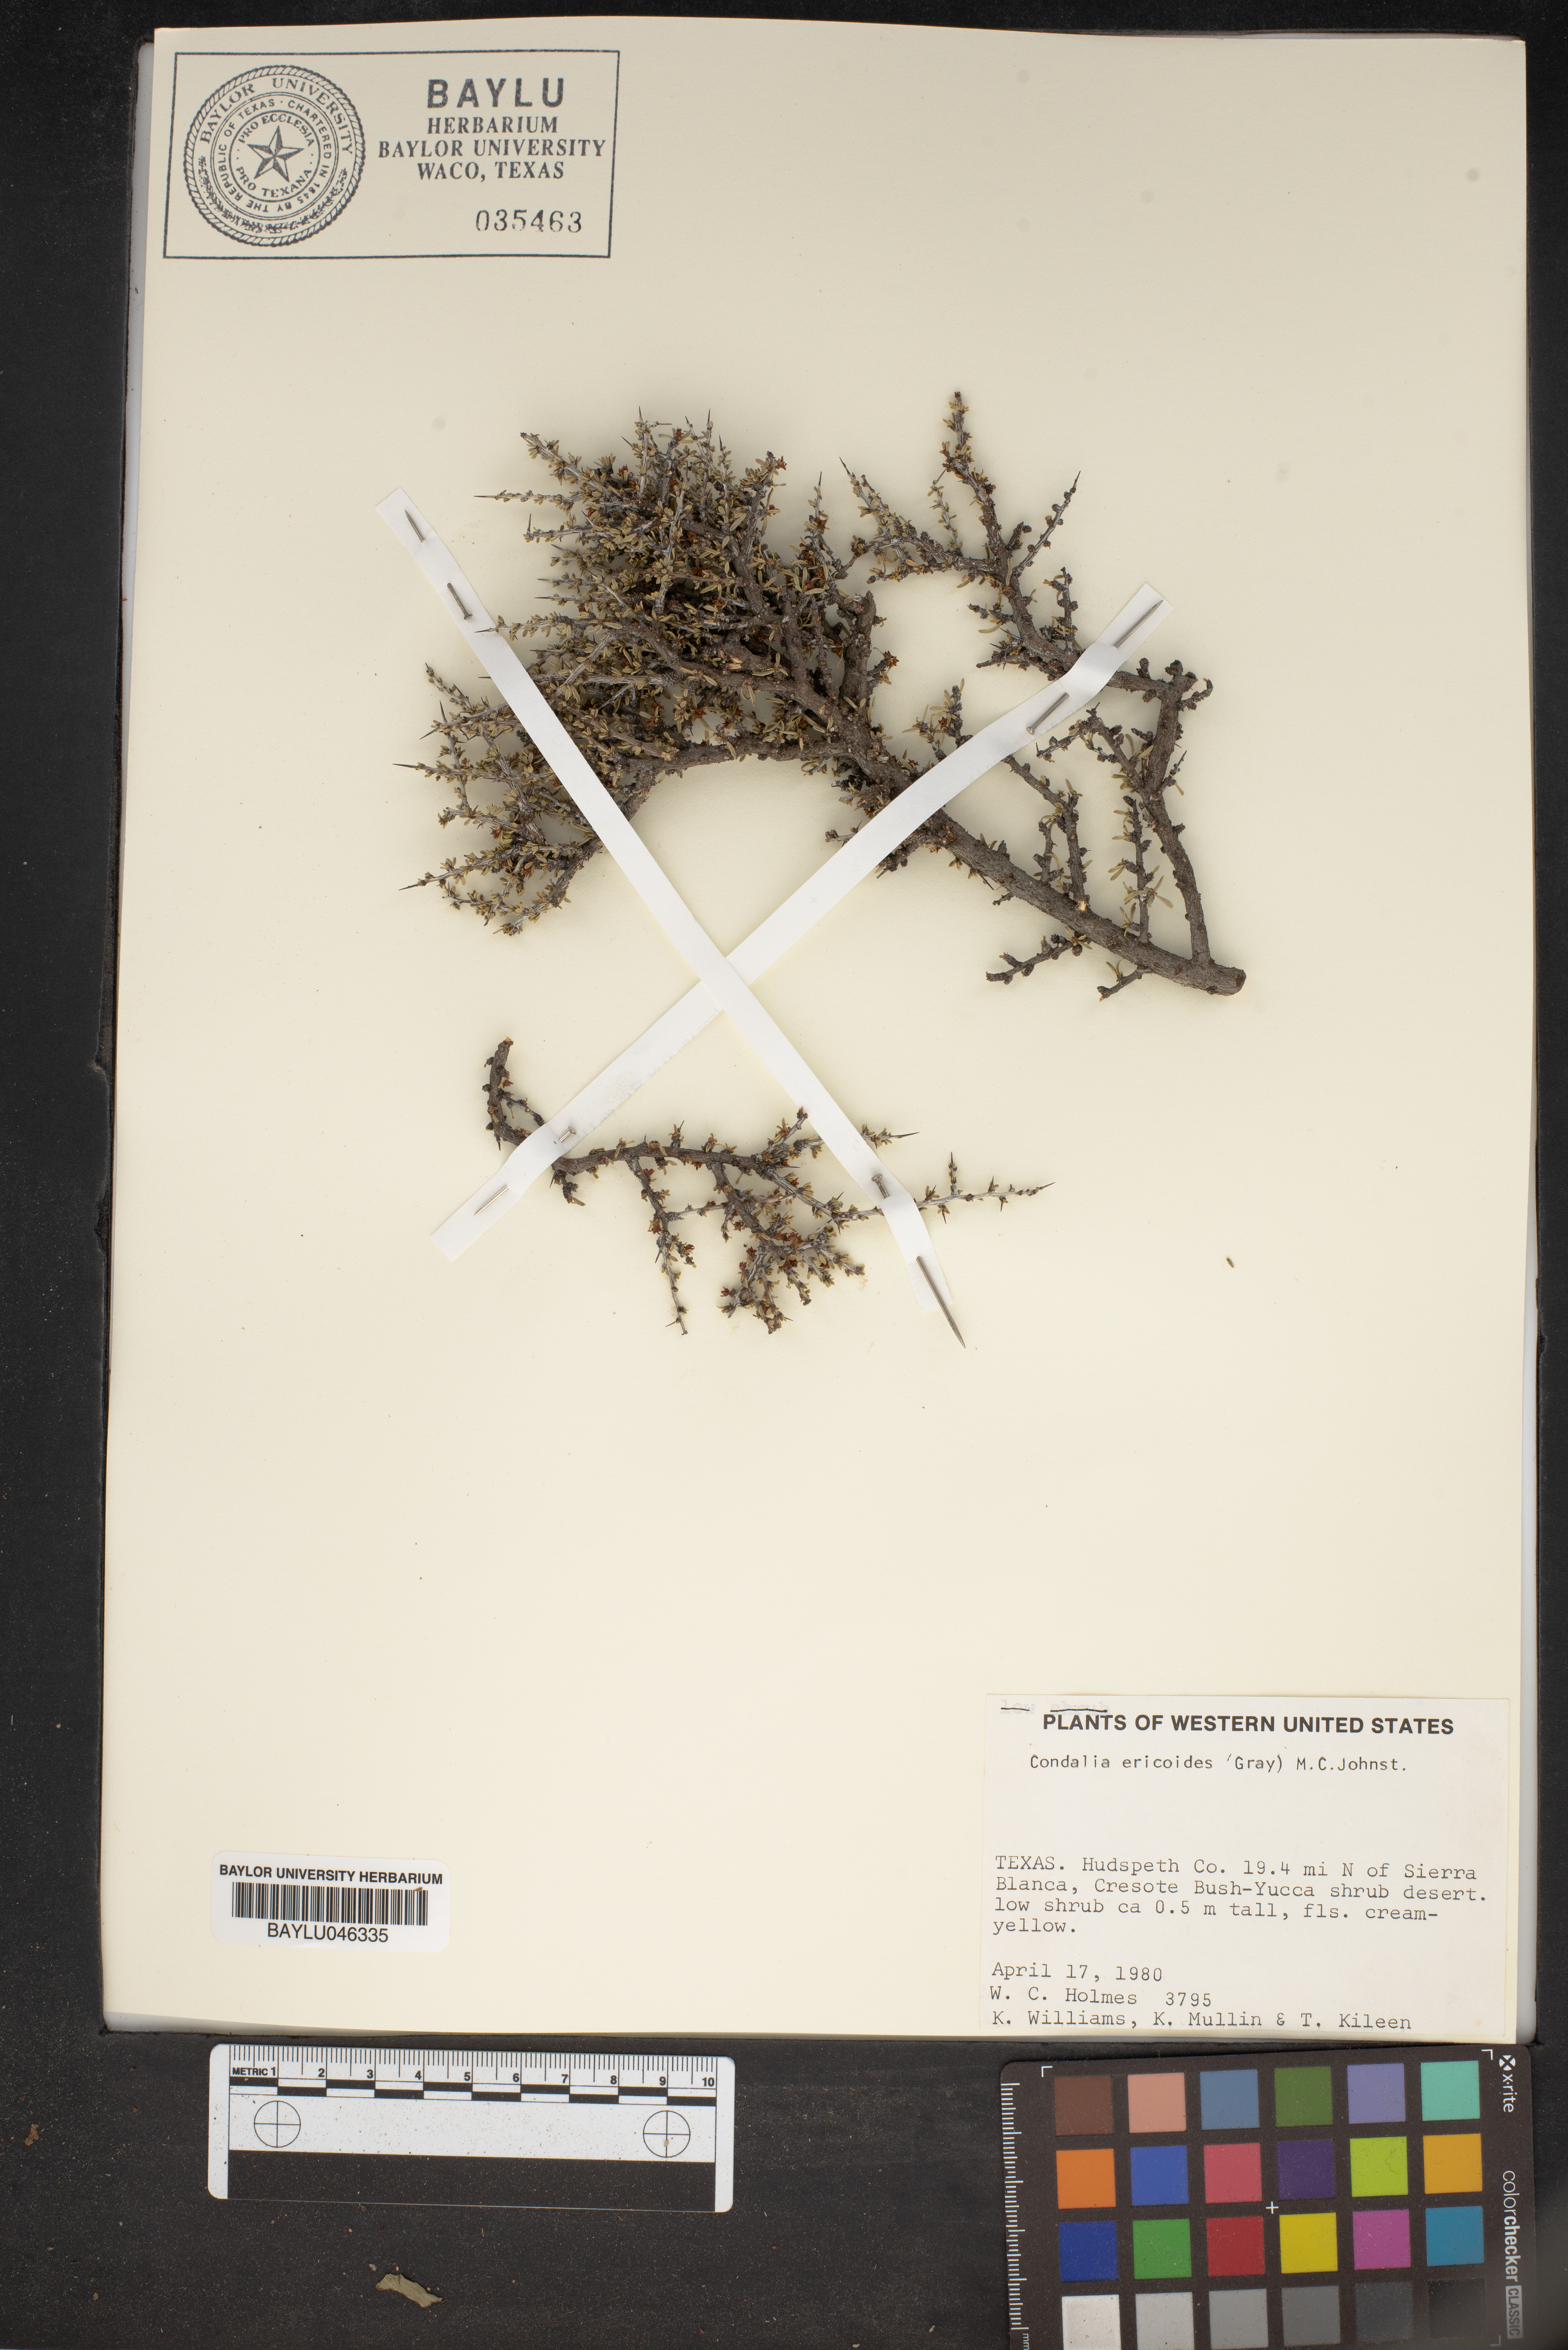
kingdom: Plantae
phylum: Tracheophyta
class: Magnoliopsida
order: Rosales
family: Rhamnaceae
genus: Condalia
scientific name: Condalia ericoides
